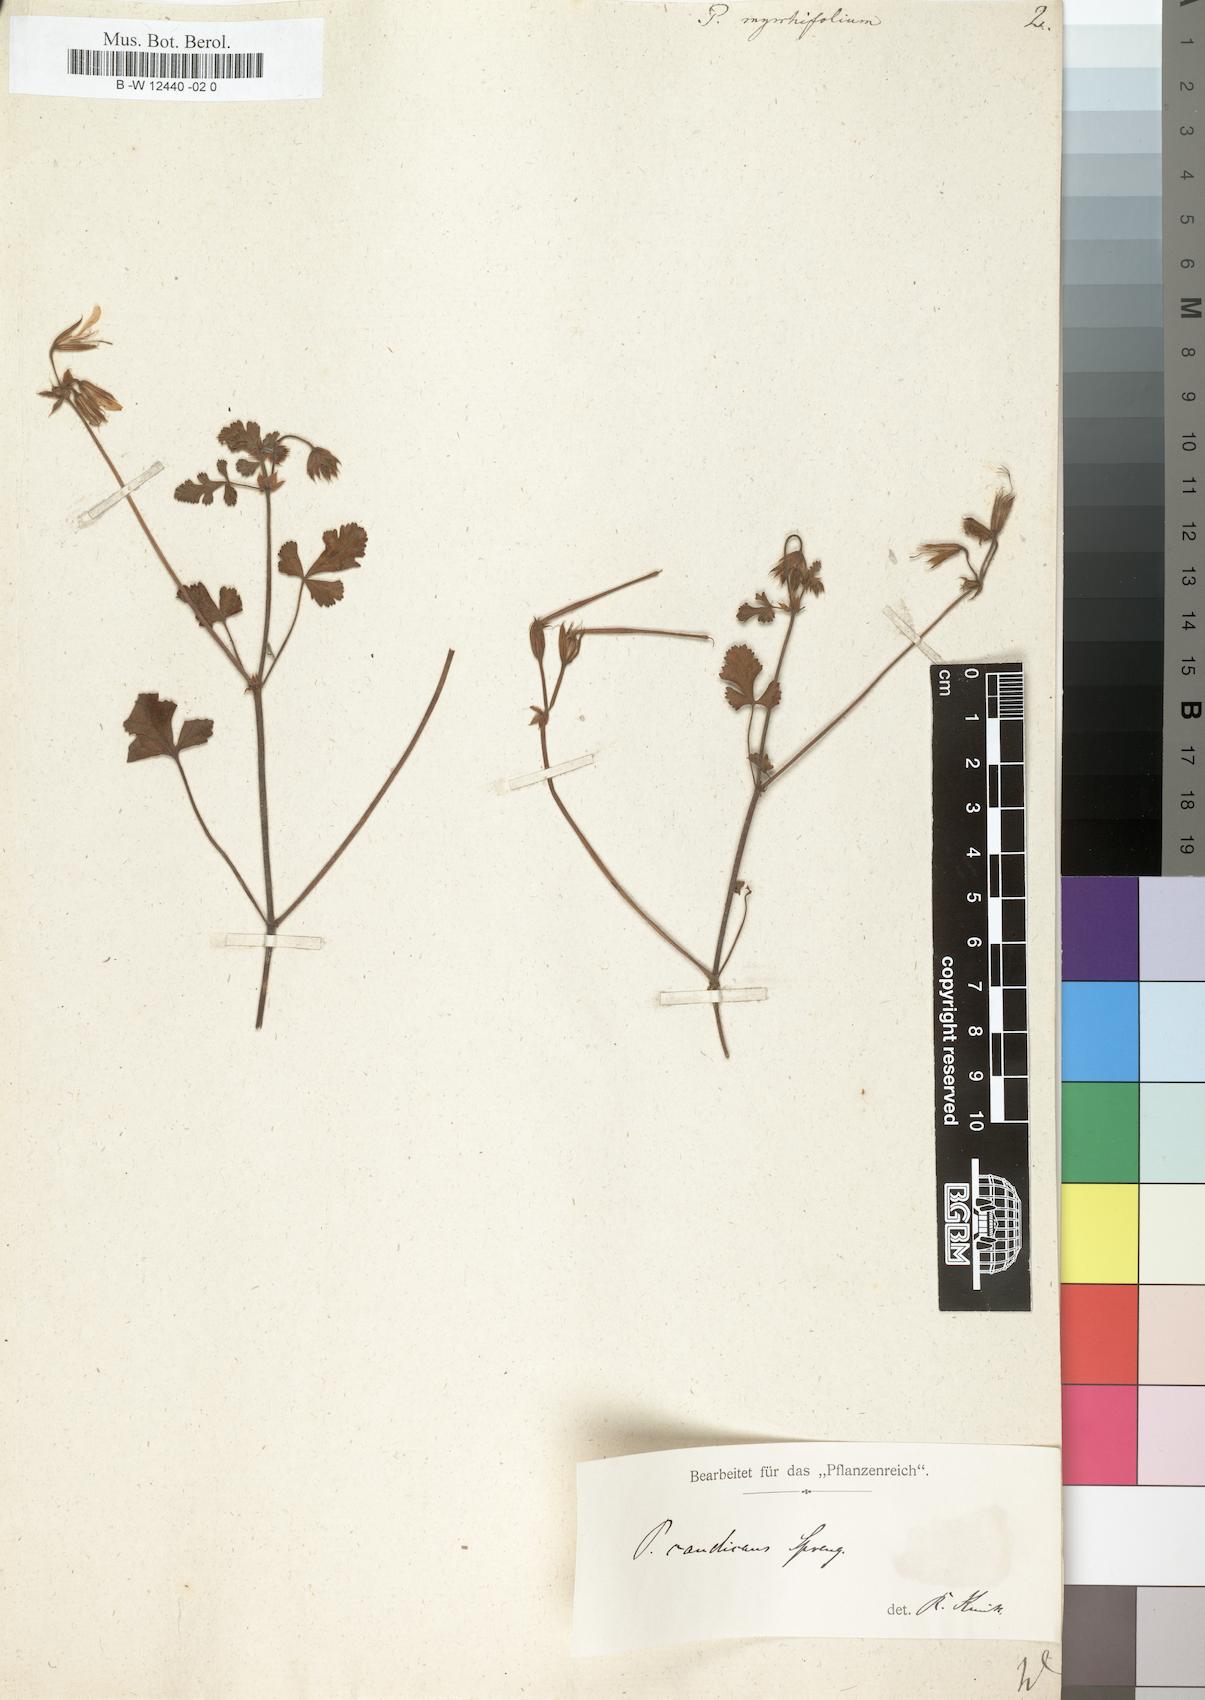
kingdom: Plantae
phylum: Tracheophyta
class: Magnoliopsida
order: Geraniales
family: Geraniaceae
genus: Pelargonium
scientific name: Pelargonium myrrhifolium
